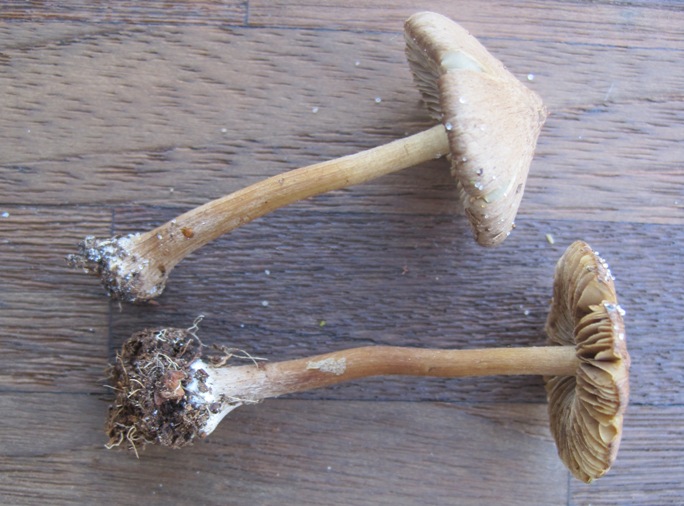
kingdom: Fungi
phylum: Basidiomycota
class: Agaricomycetes
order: Agaricales
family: Inocybaceae
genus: Inocybe
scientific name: Inocybe napipes
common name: roeknoldet trævlhat
